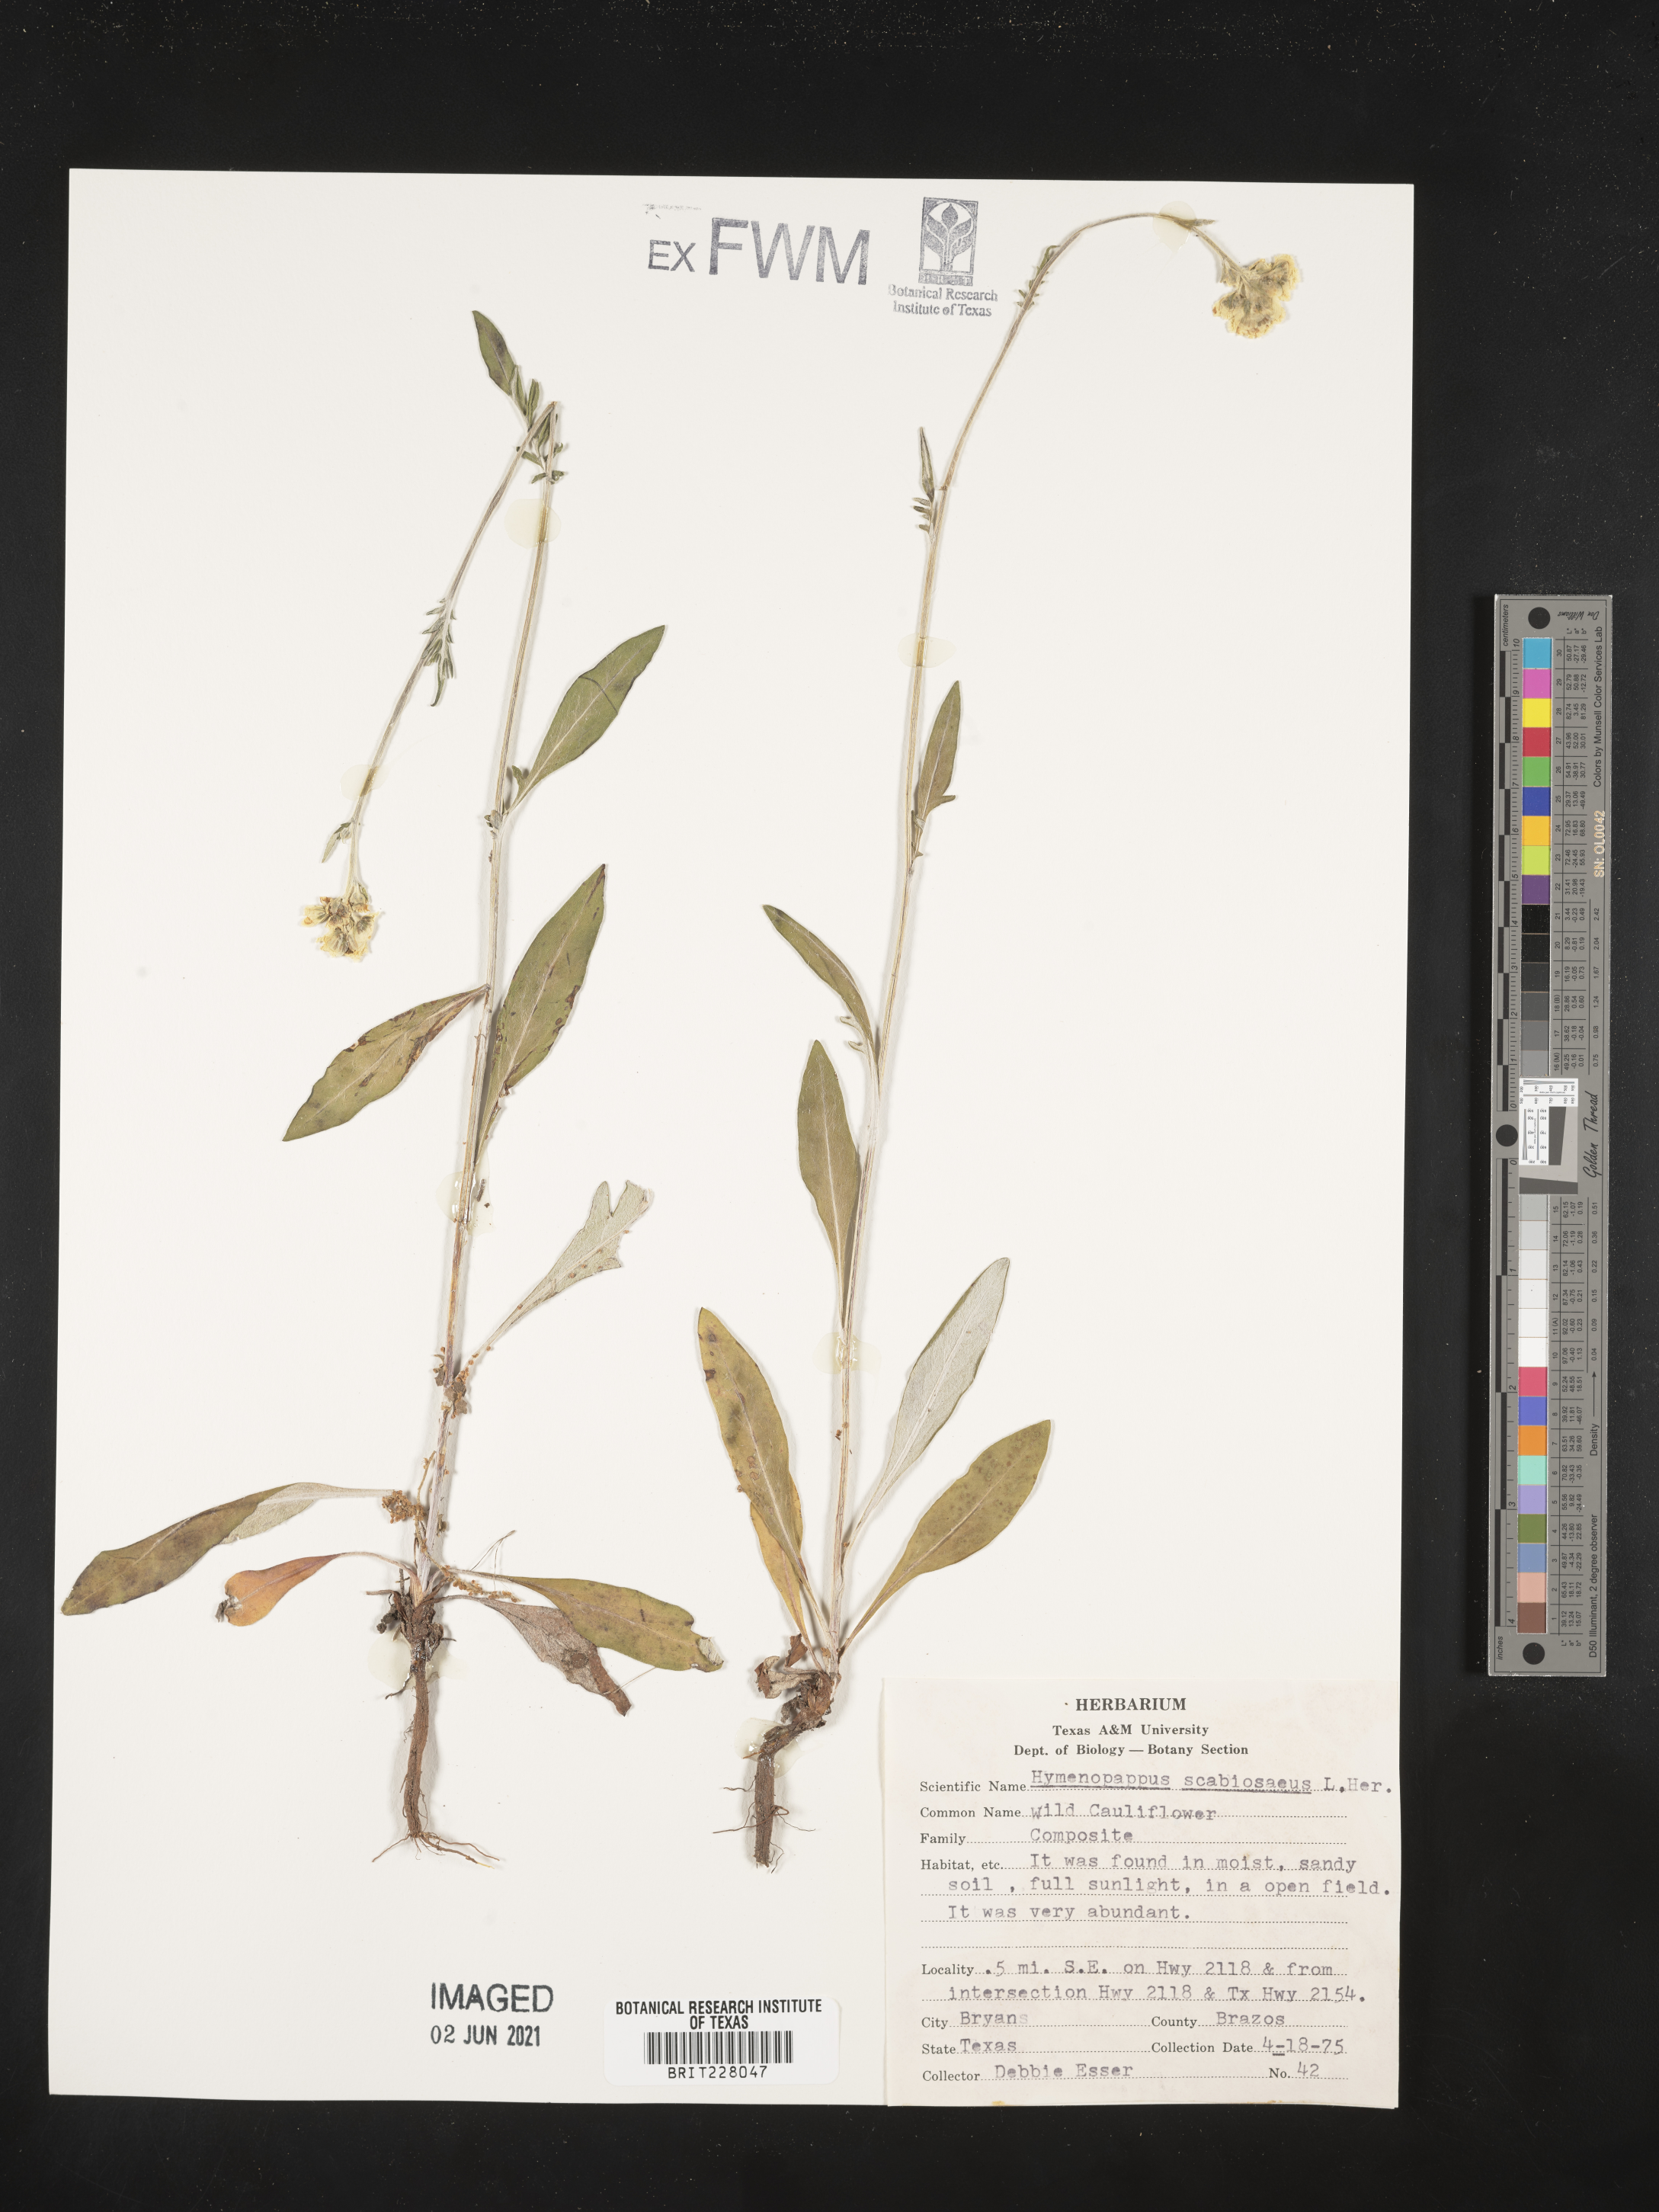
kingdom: Plantae
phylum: Tracheophyta
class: Magnoliopsida
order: Asterales
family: Asteraceae
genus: Hymenopappus
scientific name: Hymenopappus scabiosaeus
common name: Carolina woollywhite
